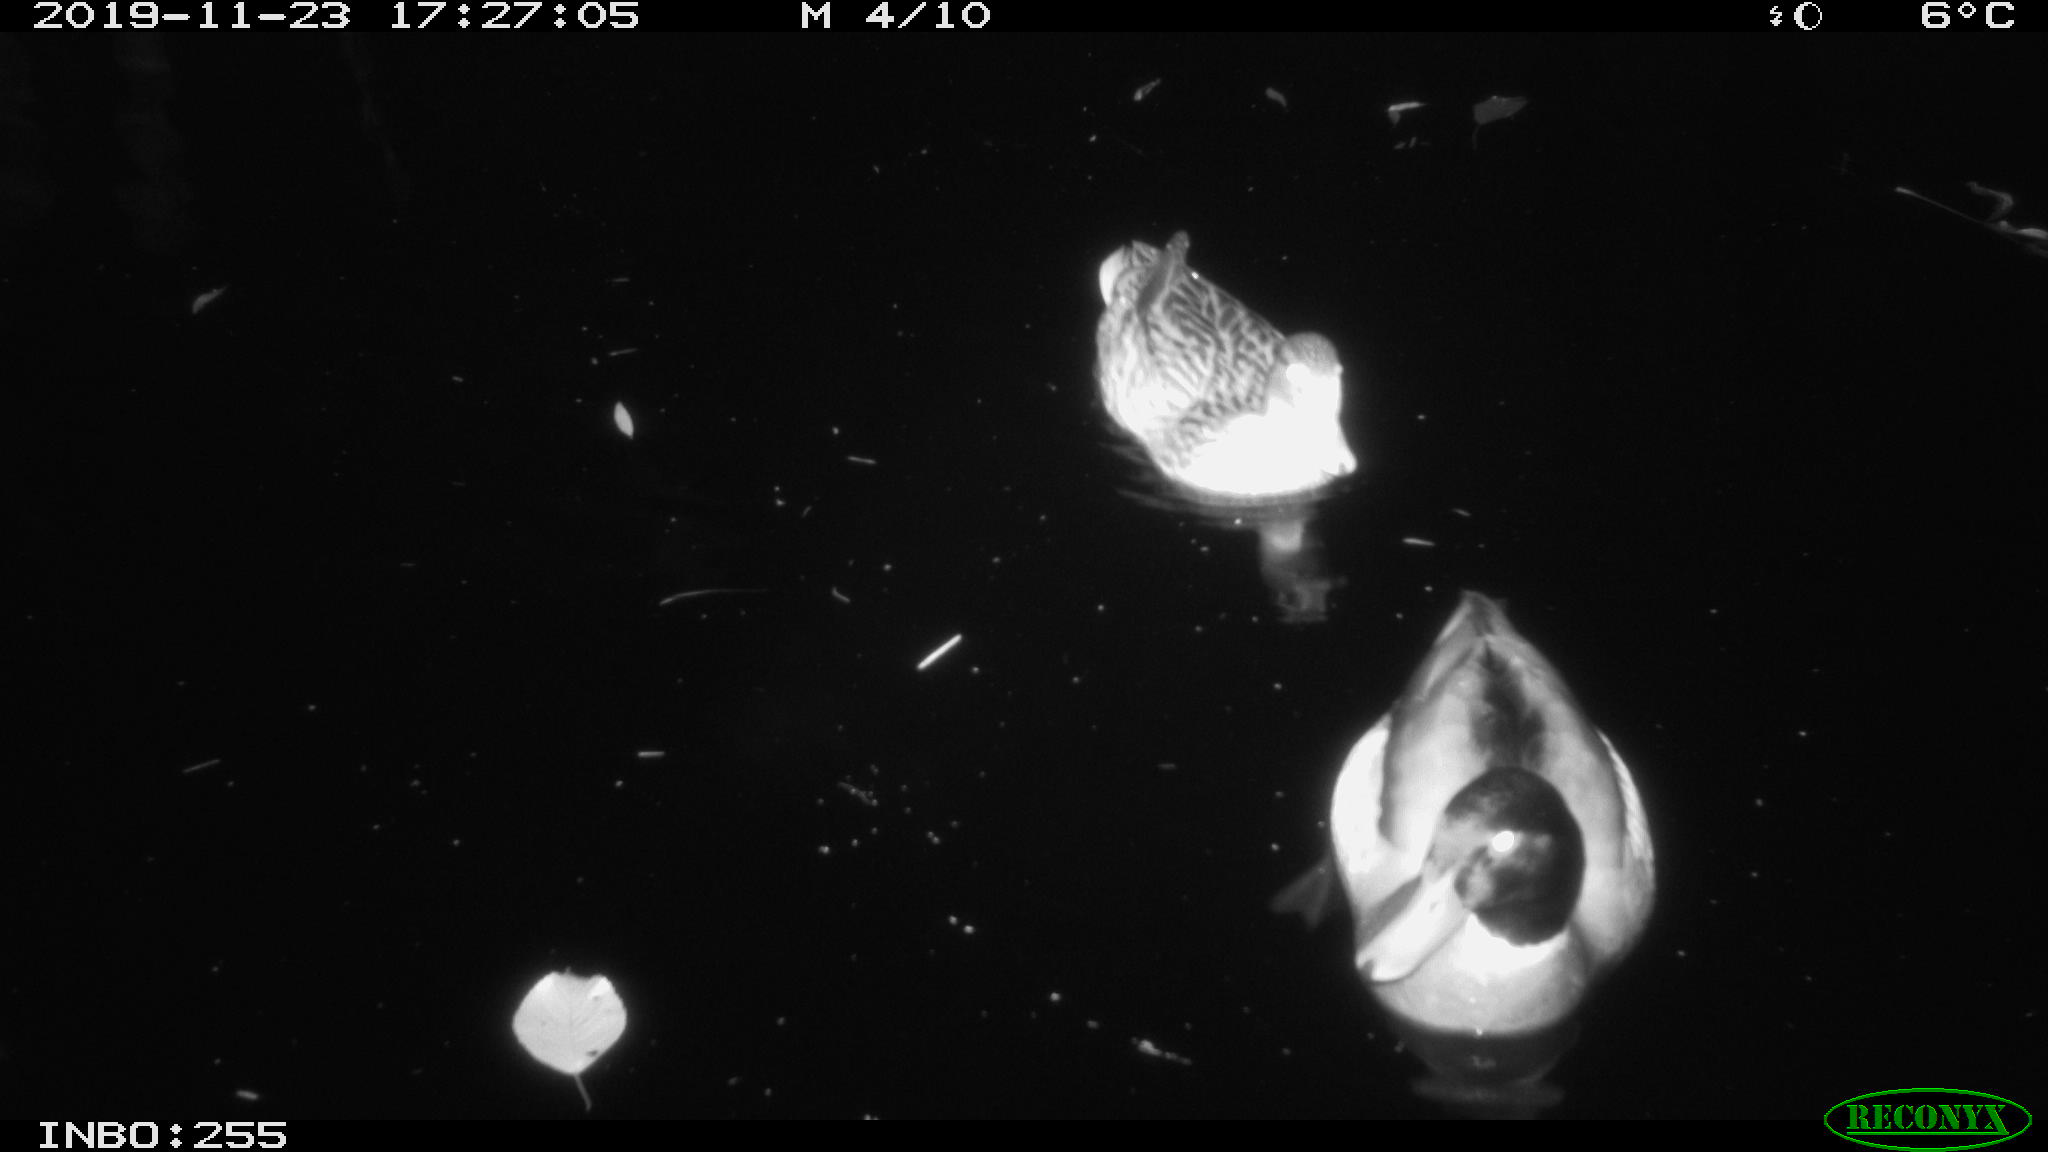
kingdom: Animalia
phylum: Chordata
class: Aves
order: Anseriformes
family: Anatidae
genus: Anas
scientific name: Anas platyrhynchos
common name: Mallard
